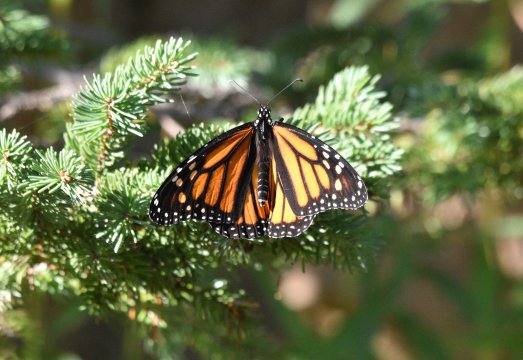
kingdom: Animalia
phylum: Arthropoda
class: Insecta
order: Lepidoptera
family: Nymphalidae
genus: Danaus
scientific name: Danaus plexippus
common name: Monarch
